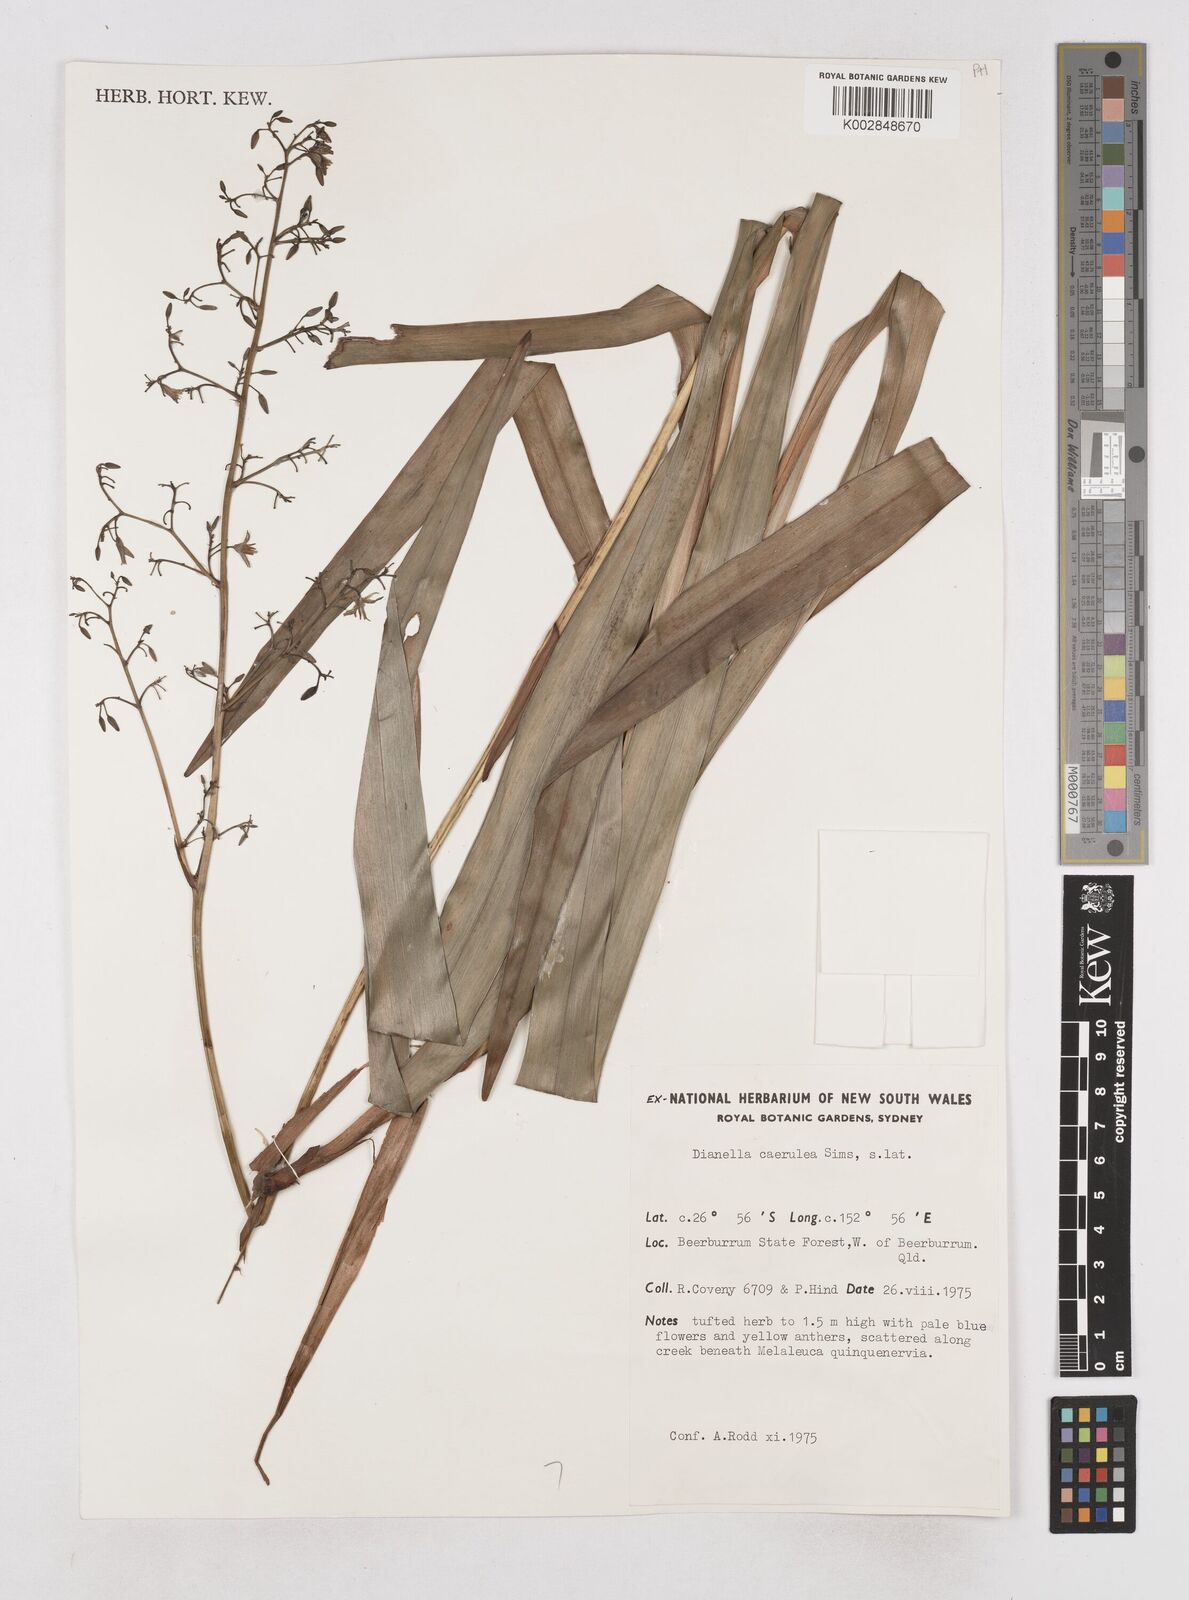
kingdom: Plantae
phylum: Tracheophyta
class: Liliopsida
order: Asparagales
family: Asphodelaceae
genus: Dianella
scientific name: Dianella caerulea
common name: Blue flax-lily
